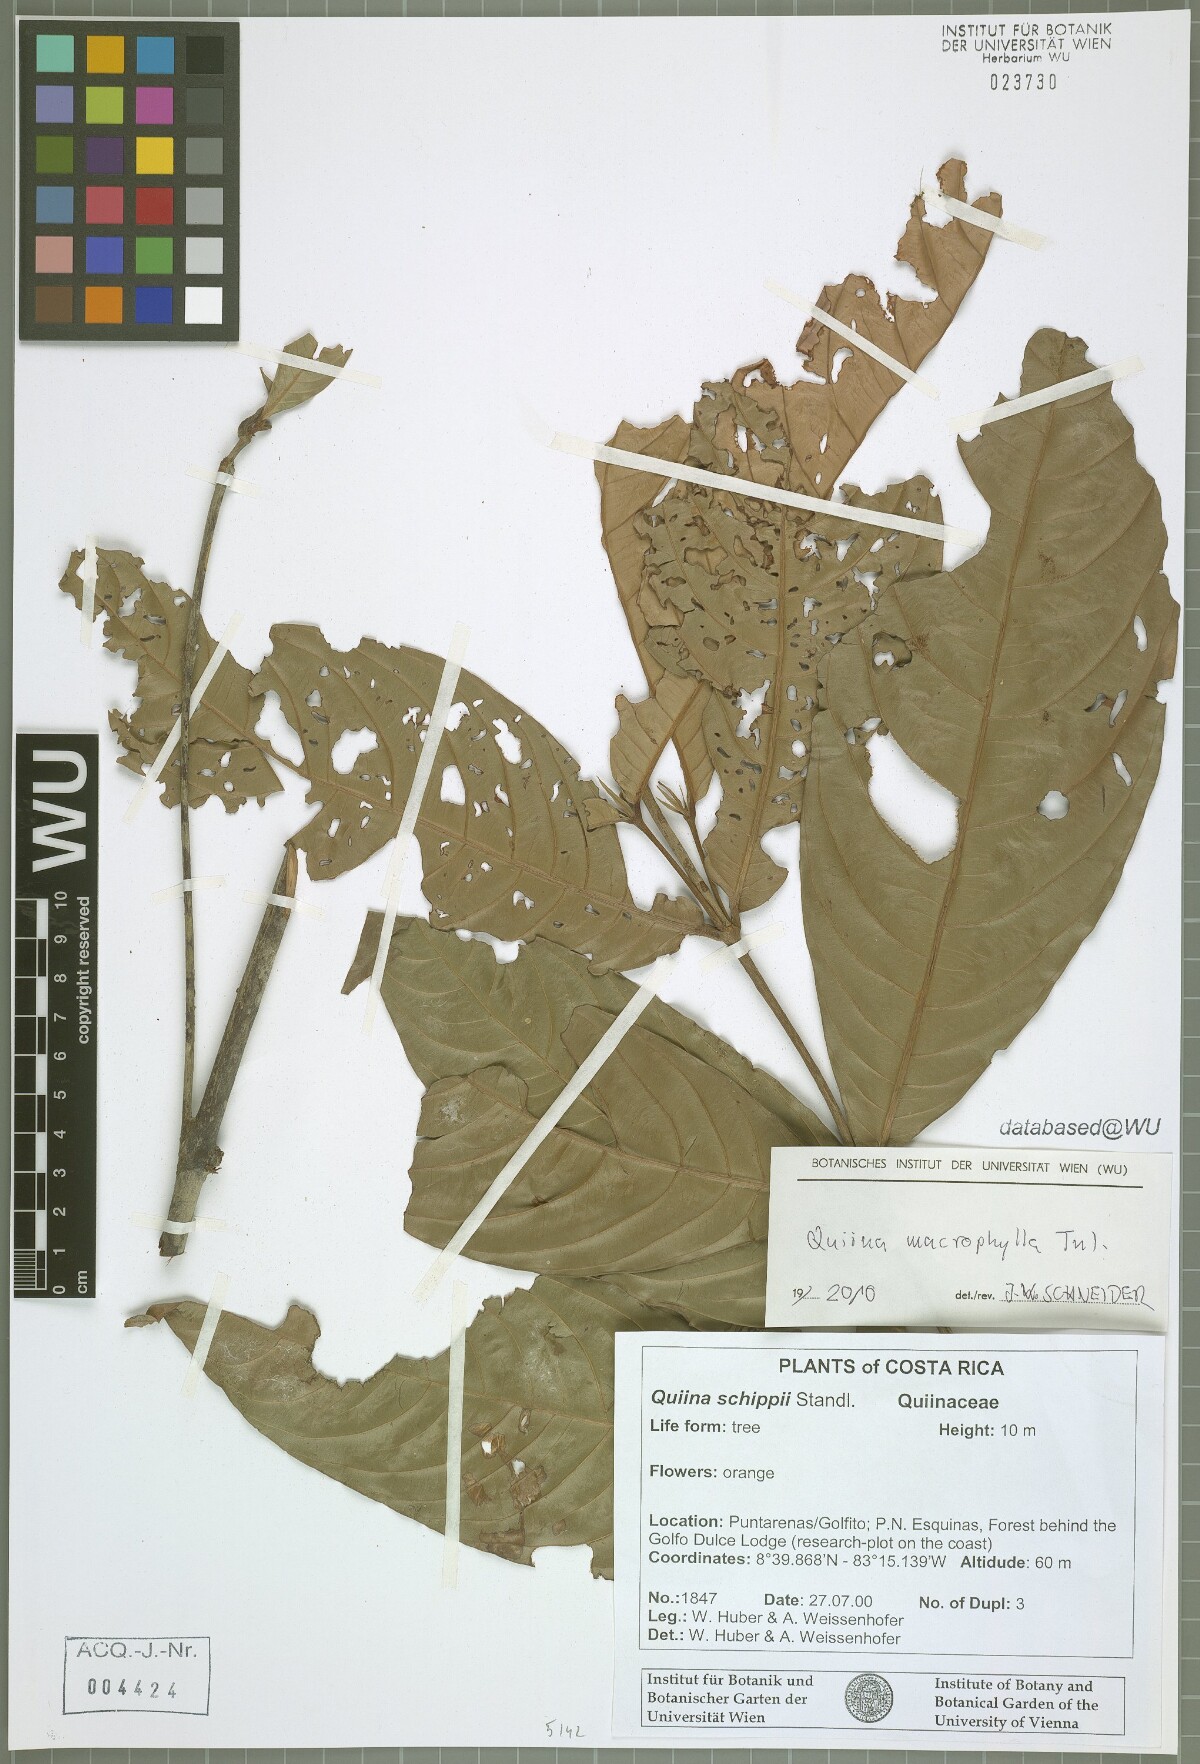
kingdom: Plantae
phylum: Tracheophyta
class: Magnoliopsida
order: Malpighiales
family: Quiinaceae
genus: Quiina
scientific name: Quiina macrophylla
